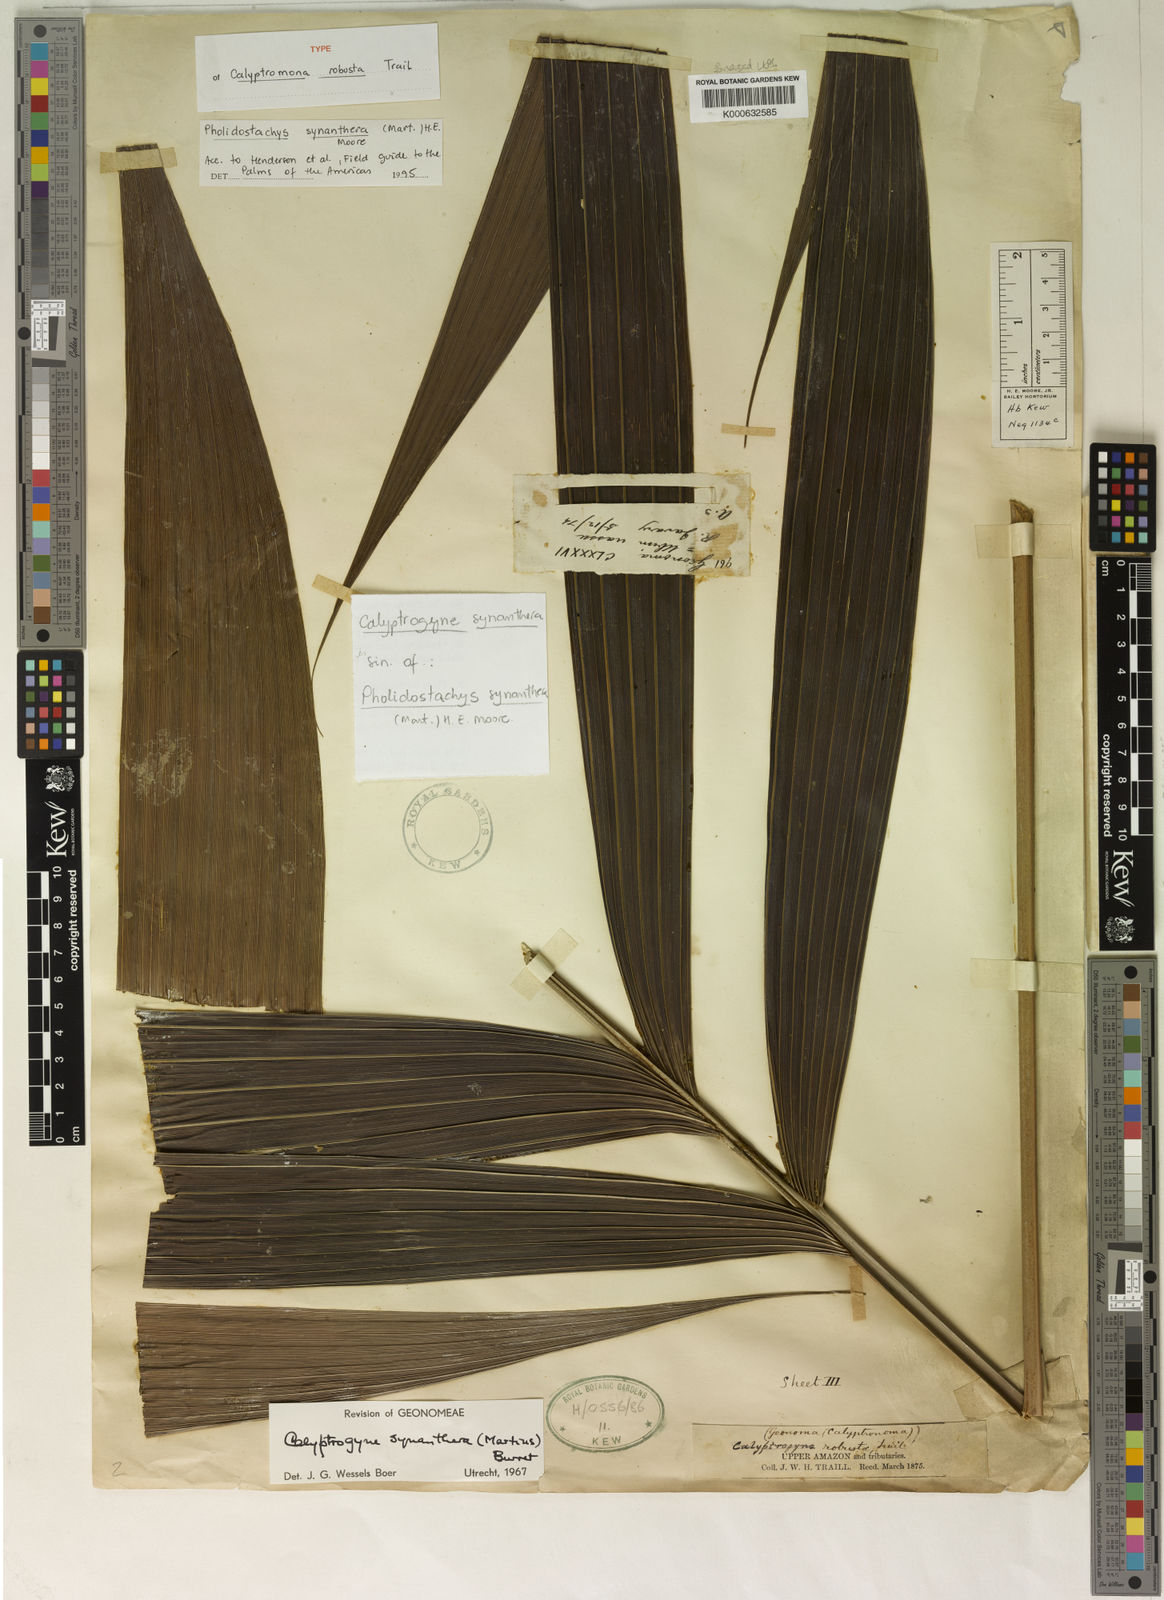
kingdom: Plantae
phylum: Tracheophyta
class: Liliopsida
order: Arecales
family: Arecaceae
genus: Pholidostachys
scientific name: Pholidostachys synanthera
